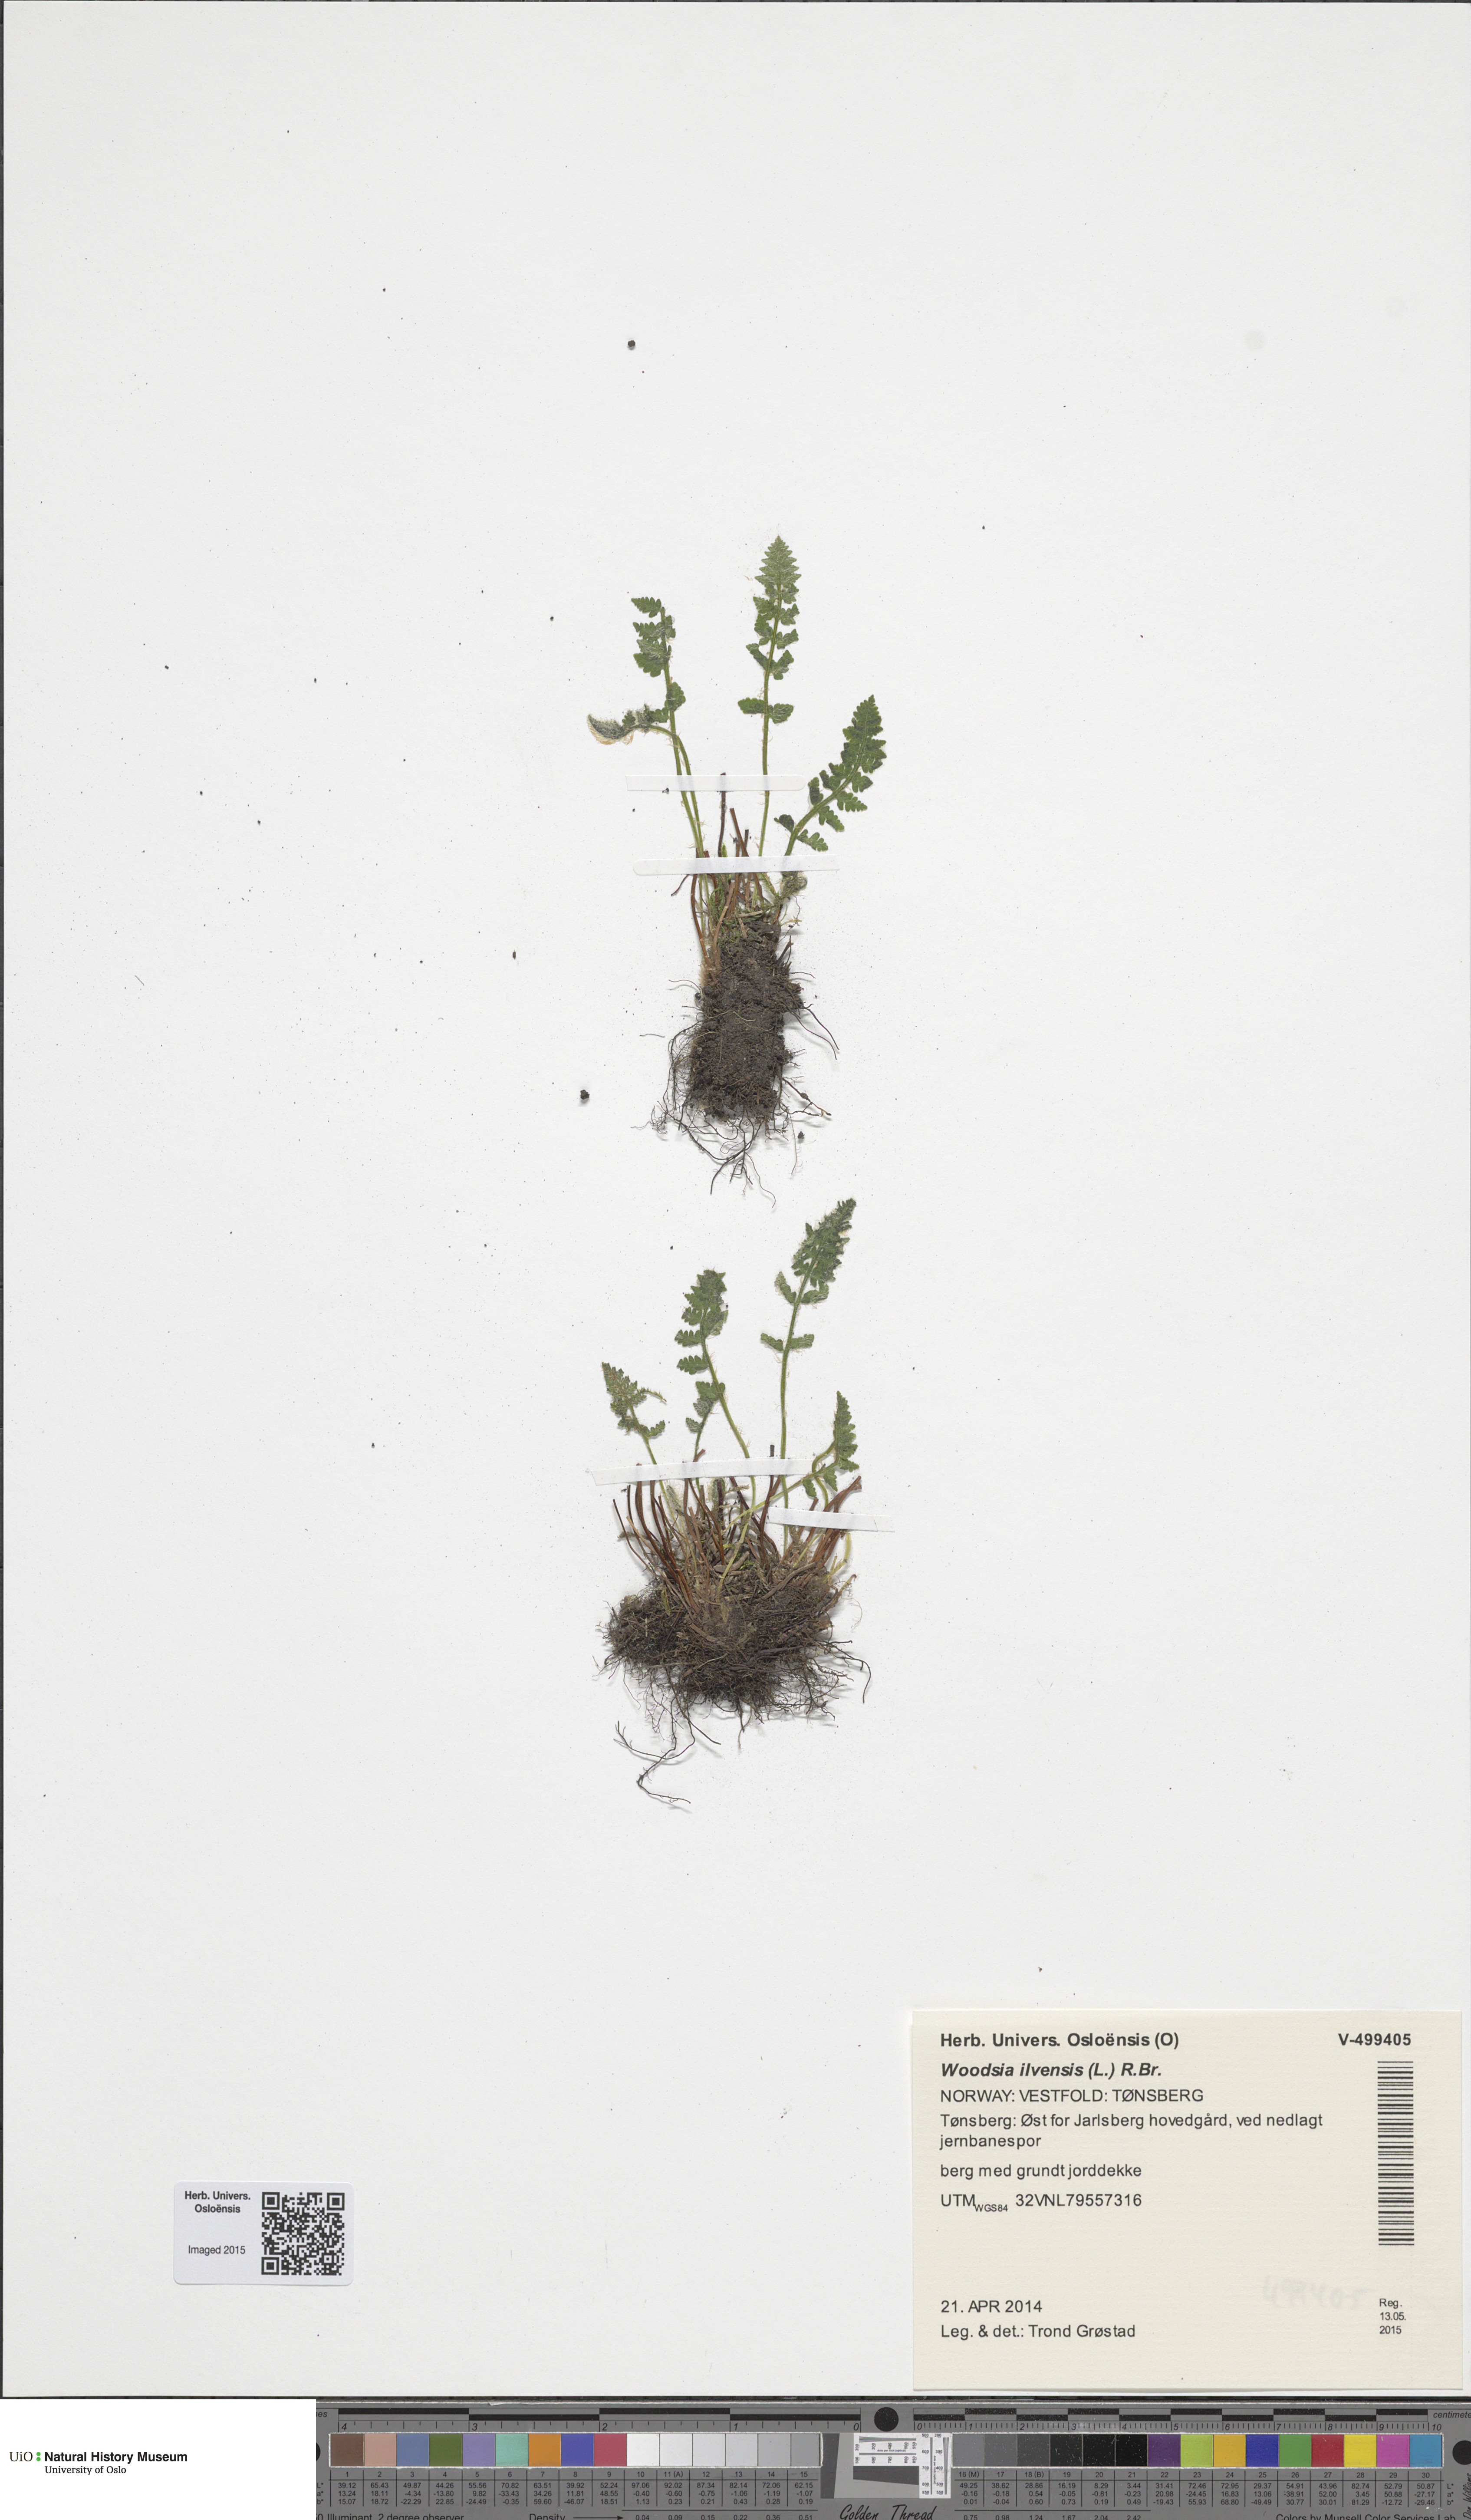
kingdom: Plantae
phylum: Tracheophyta
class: Polypodiopsida
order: Polypodiales
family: Woodsiaceae
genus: Woodsia
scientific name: Woodsia ilvensis
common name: Fragrant woodsia
